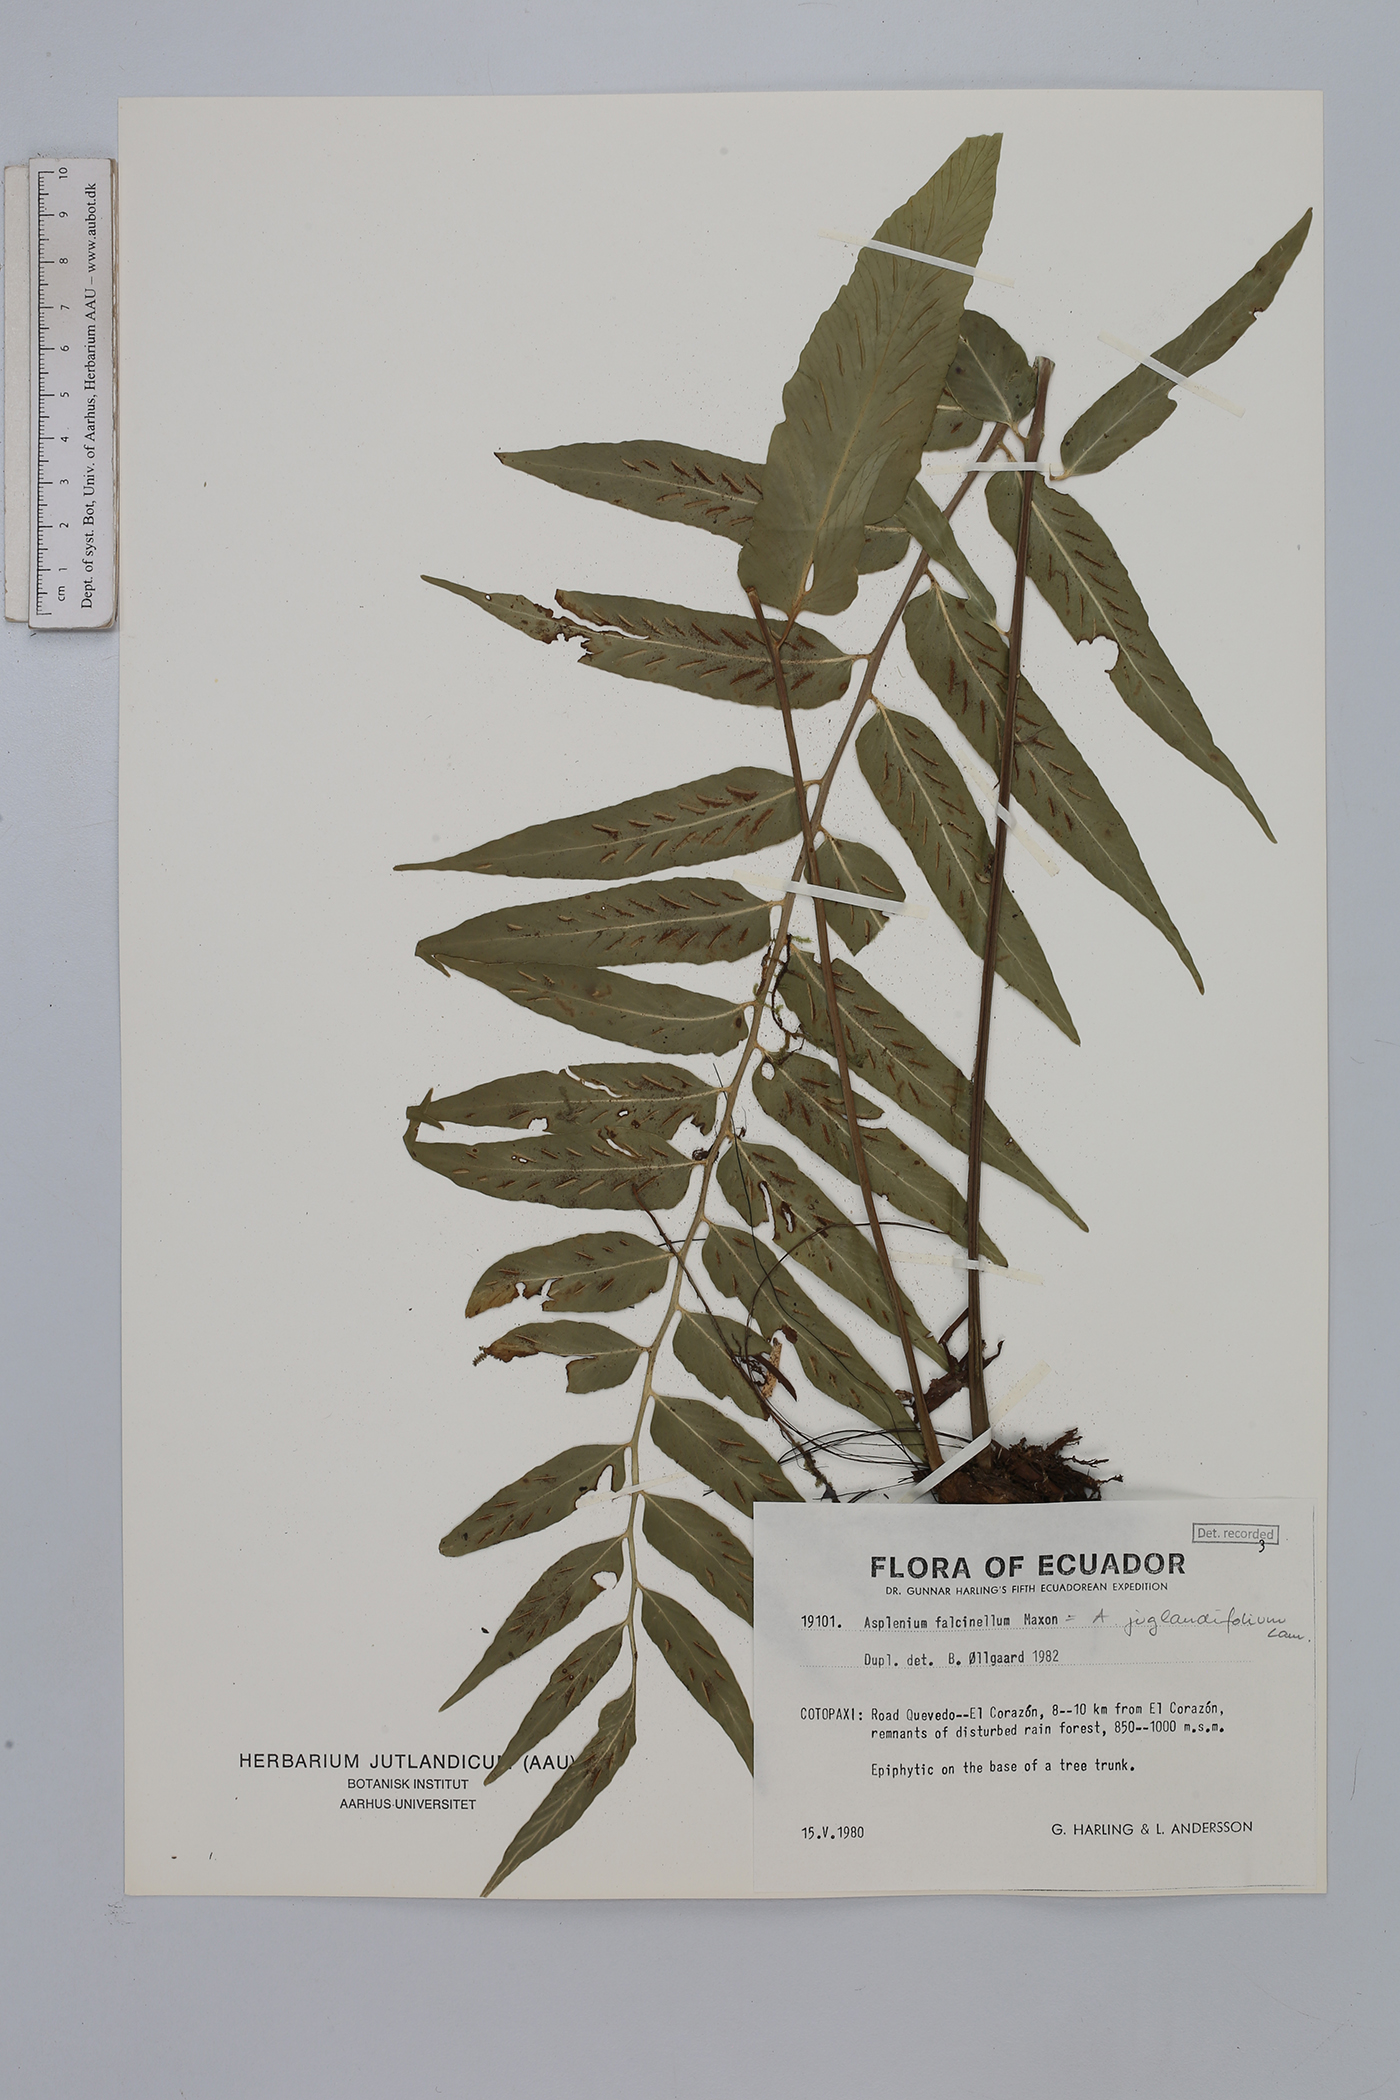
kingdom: Plantae
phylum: Tracheophyta
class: Polypodiopsida
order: Polypodiales
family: Aspleniaceae
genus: Asplenium
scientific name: Asplenium juglandifolium
